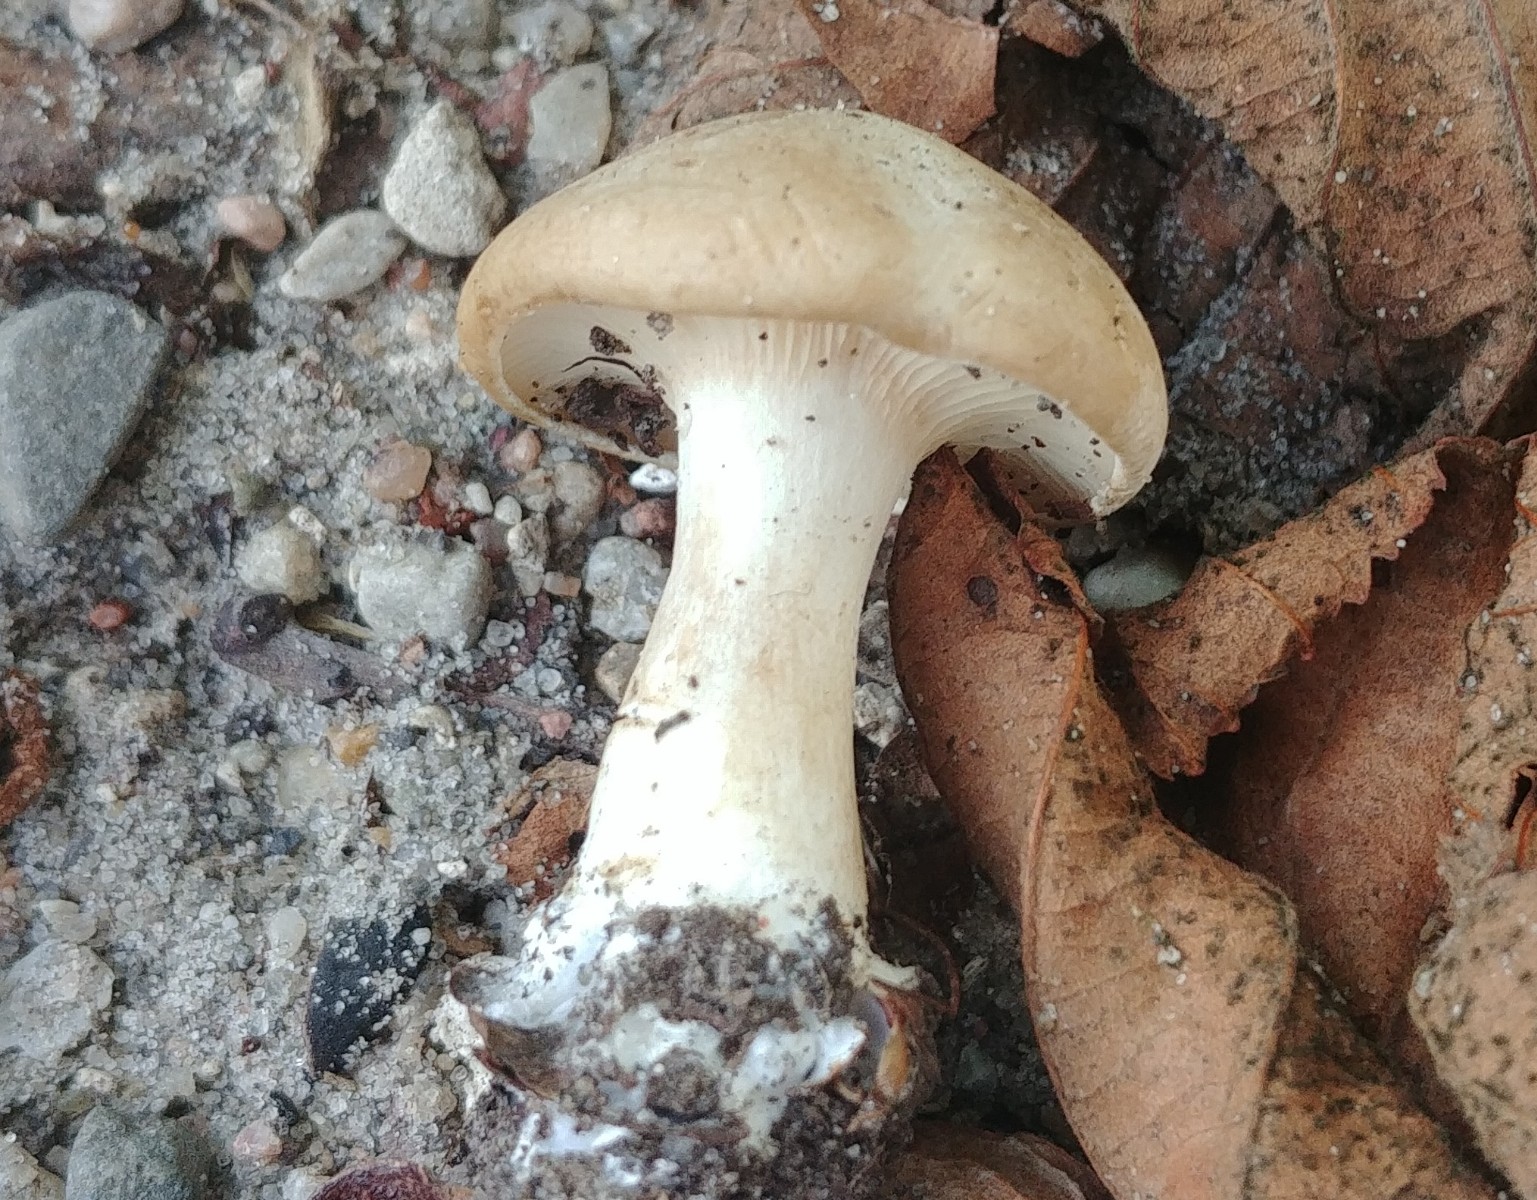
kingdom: Fungi
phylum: Basidiomycota
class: Agaricomycetes
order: Agaricales
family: Entolomataceae
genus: Clitopilus
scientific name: Clitopilus prunulus
